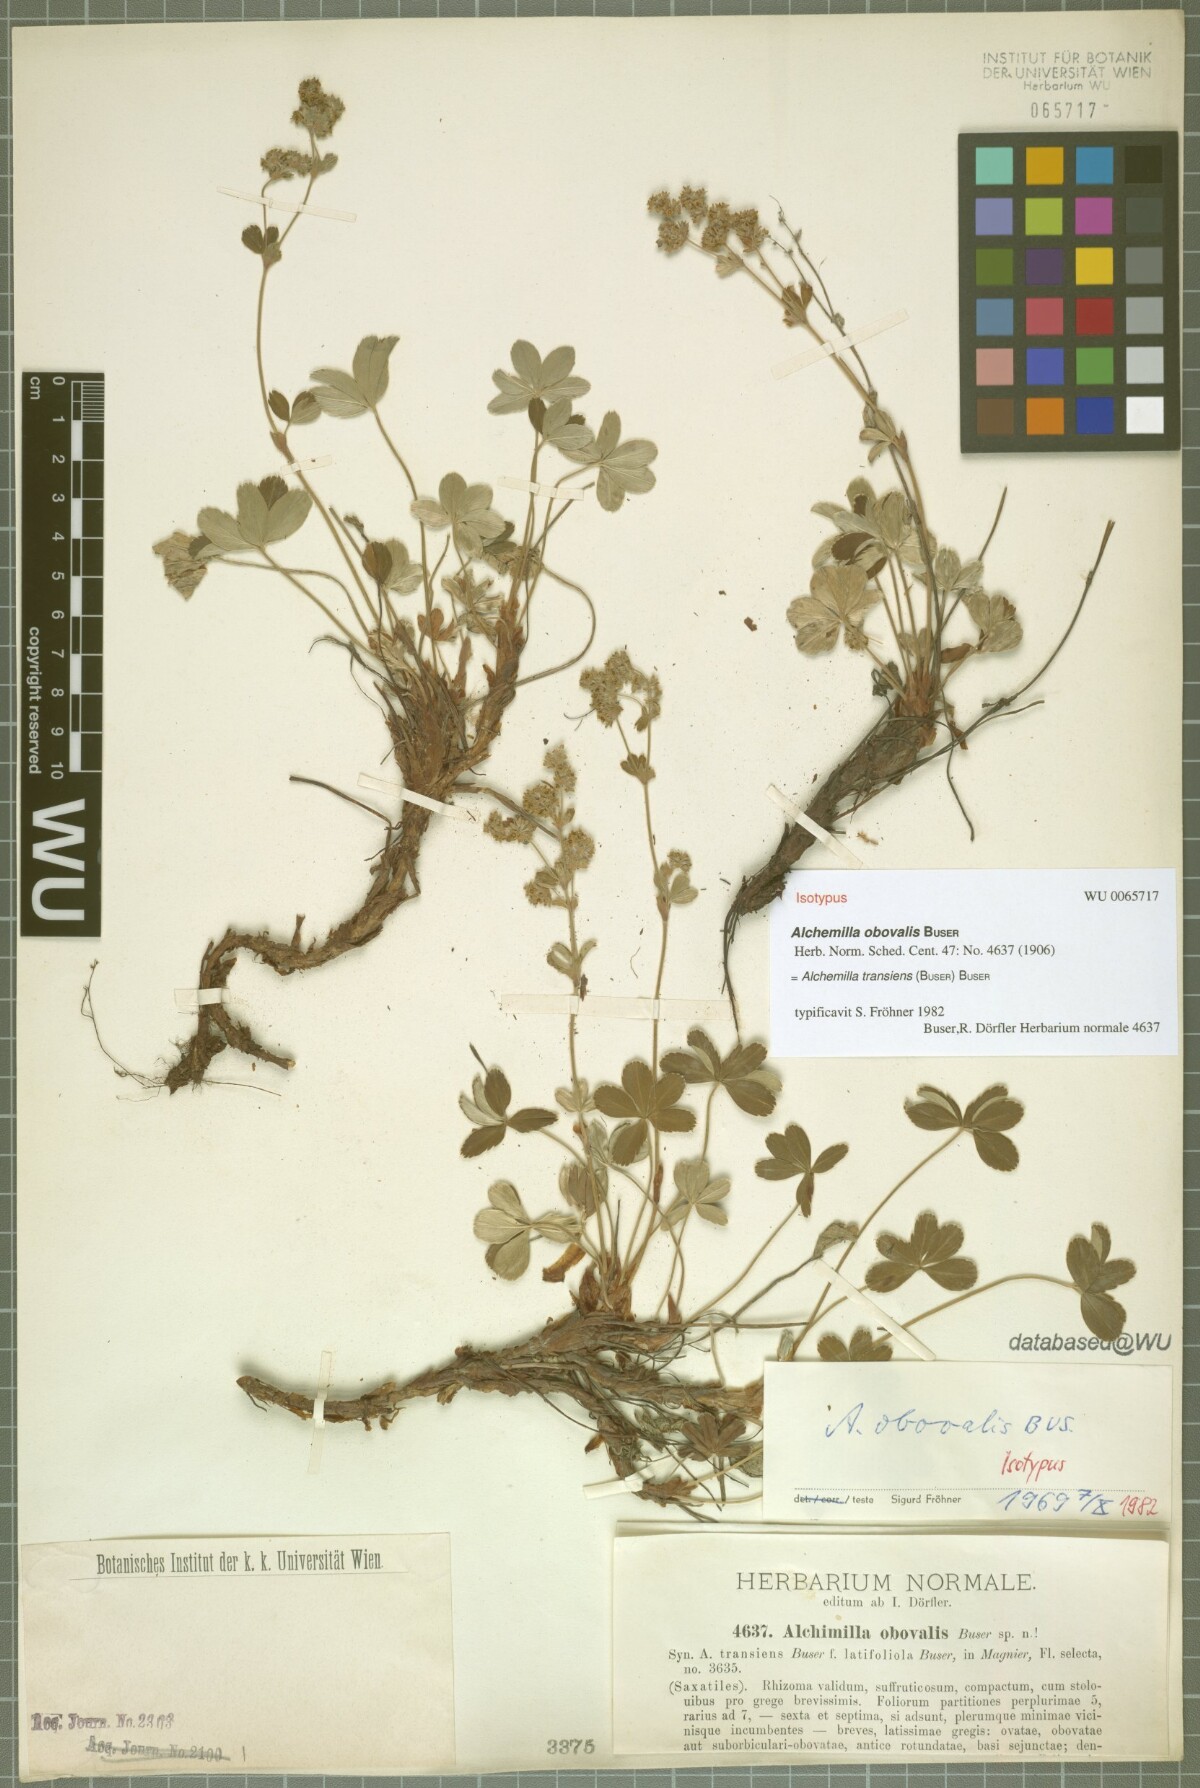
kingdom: Plantae
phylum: Tracheophyta
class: Magnoliopsida
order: Rosales
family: Rosaceae
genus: Alchemilla
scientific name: Alchemilla transiens
